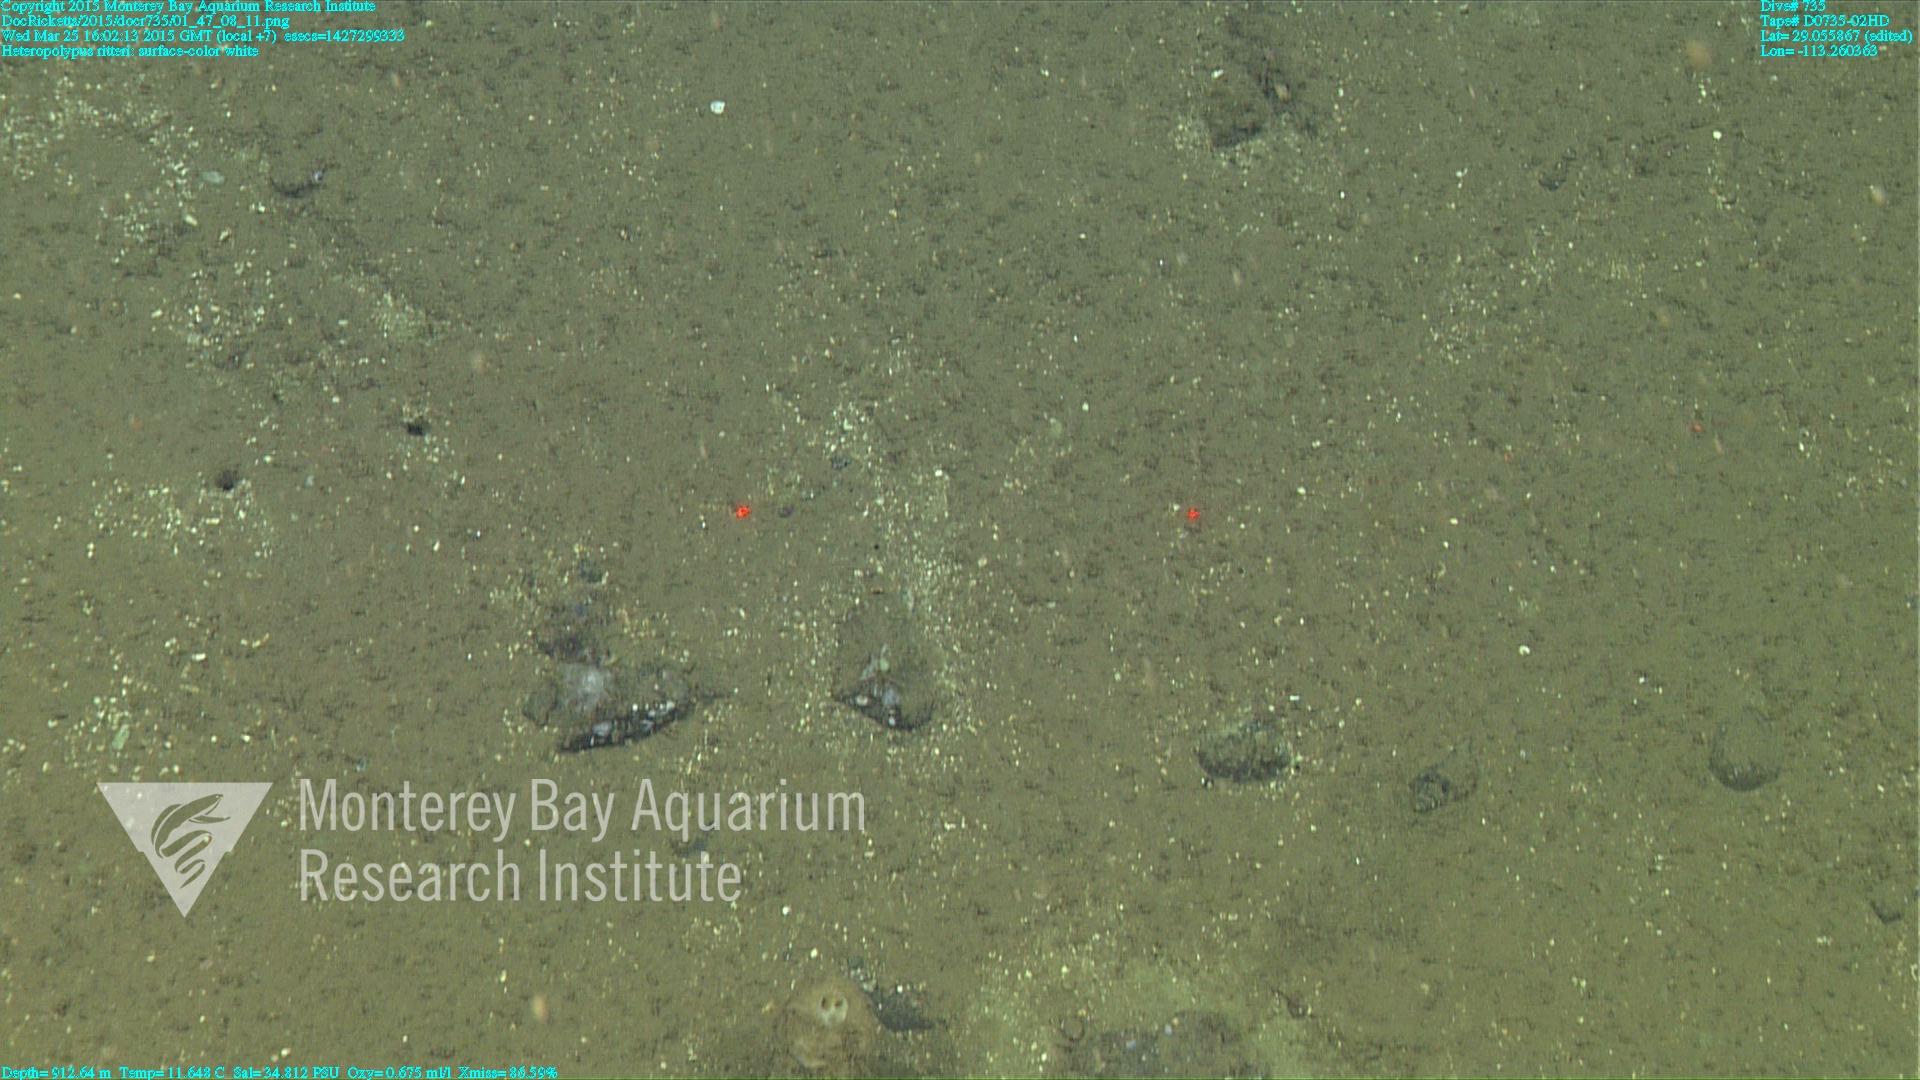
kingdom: Animalia
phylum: Cnidaria
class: Anthozoa
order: Scleralcyonacea
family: Coralliidae
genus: Heteropolypus
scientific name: Heteropolypus ritteri
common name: Ritter's soft coral
